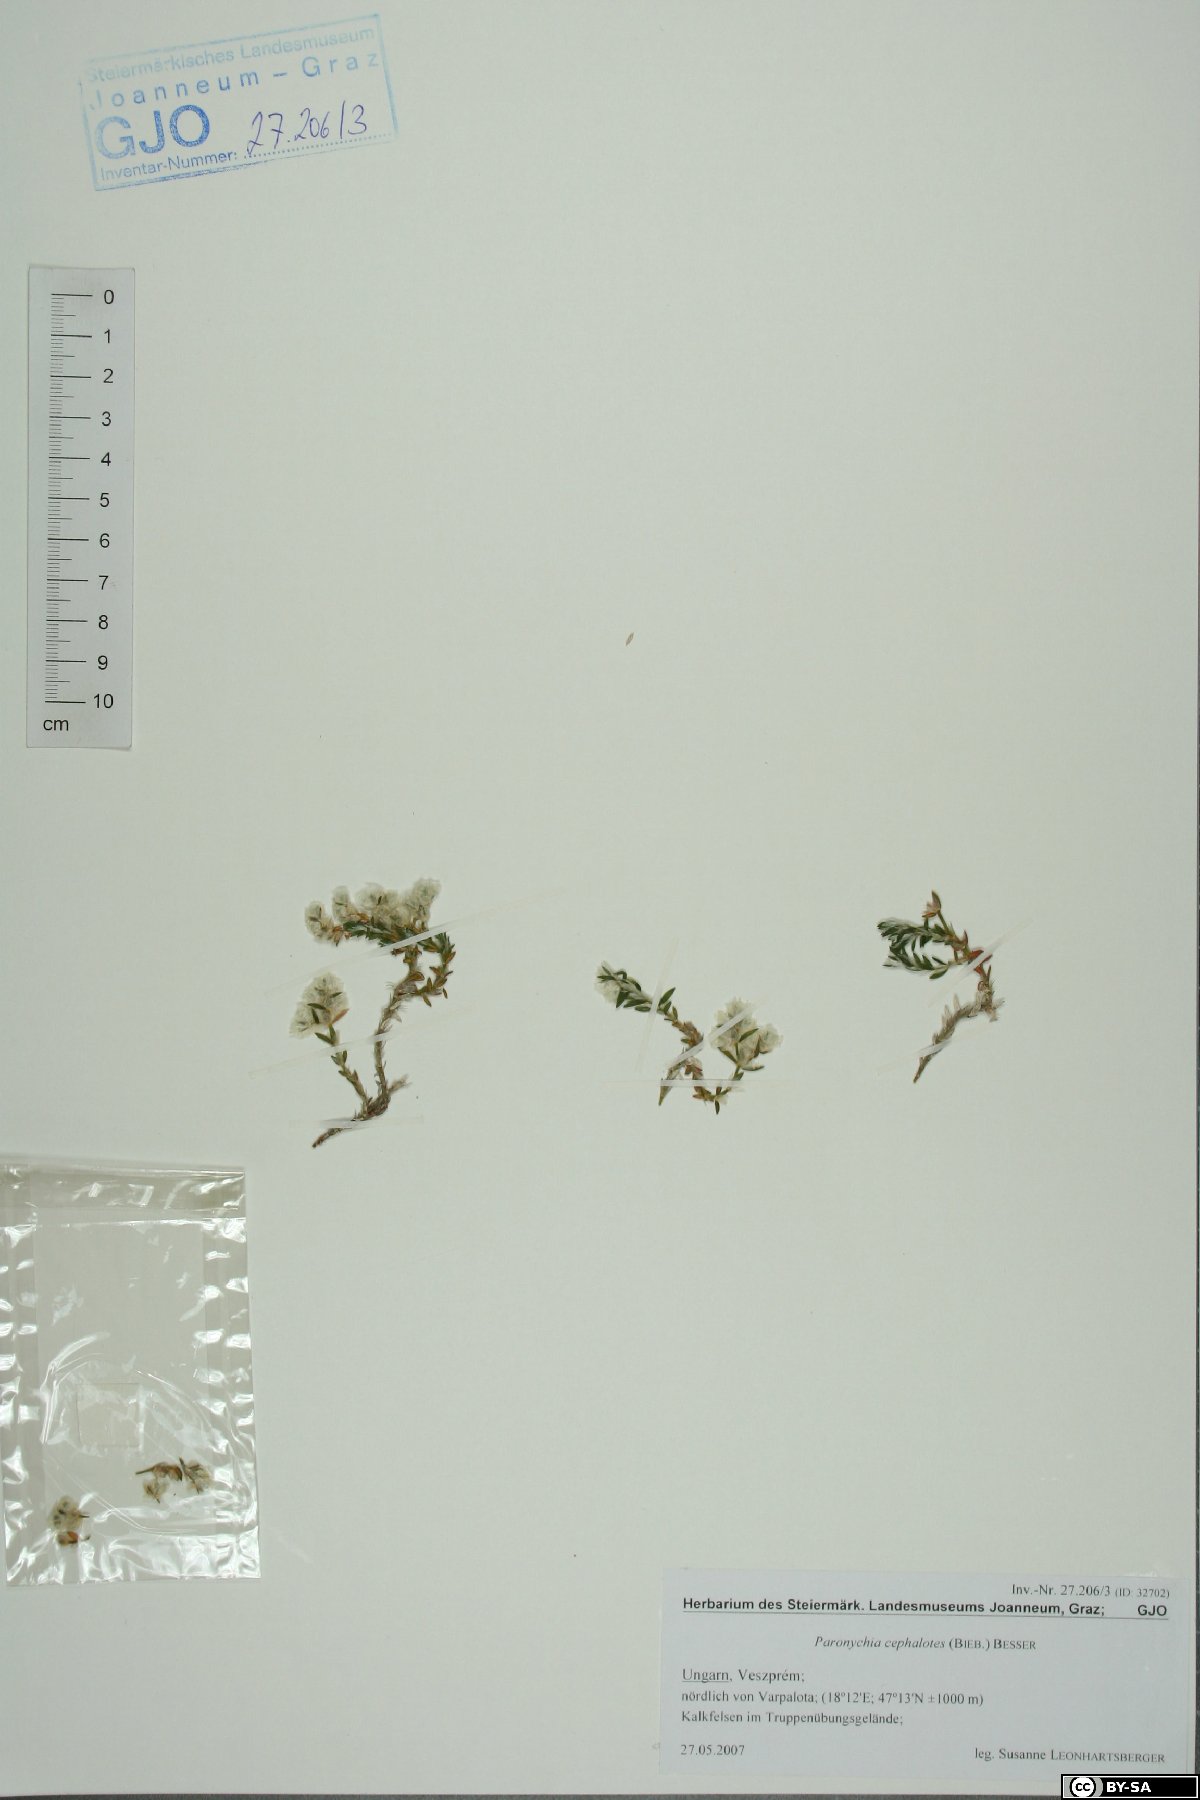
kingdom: Plantae
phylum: Tracheophyta
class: Magnoliopsida
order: Caryophyllales
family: Caryophyllaceae
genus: Paronychia
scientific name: Paronychia cephalotes
